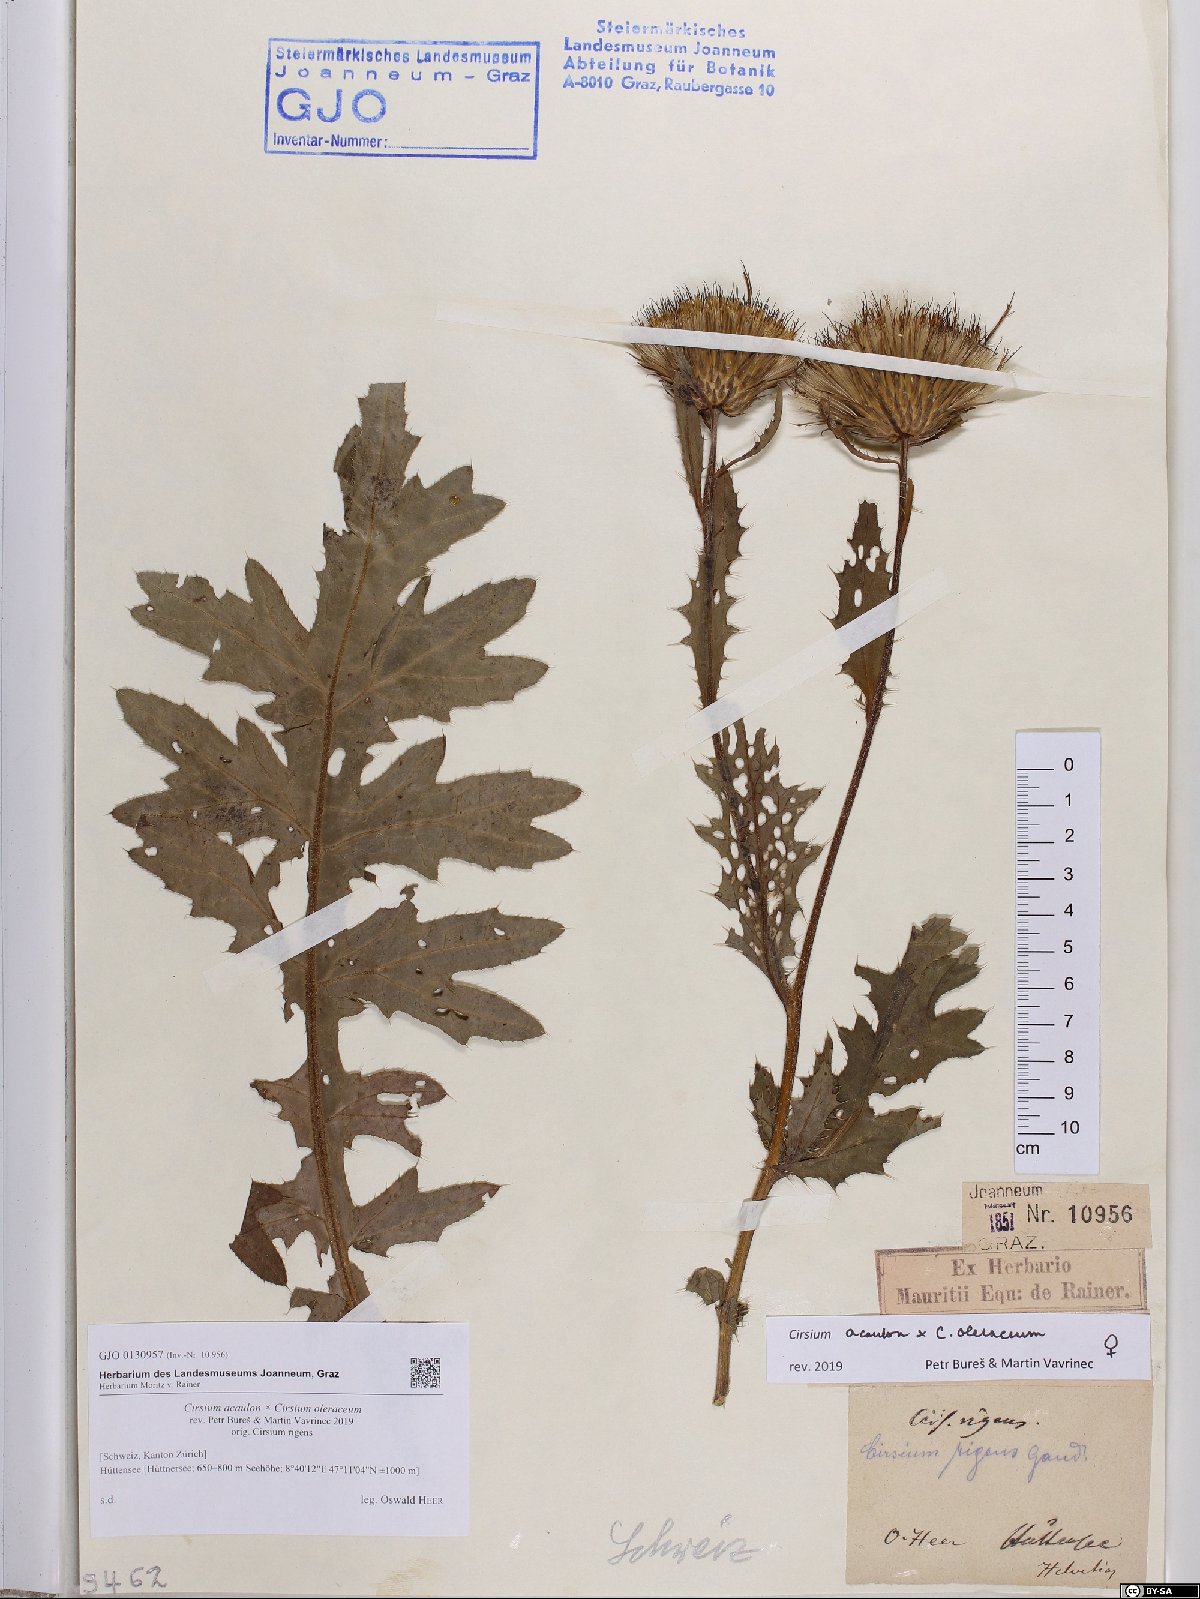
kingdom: Plantae
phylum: Tracheophyta
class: Magnoliopsida
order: Asterales
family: Asteraceae
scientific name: Asteraceae
